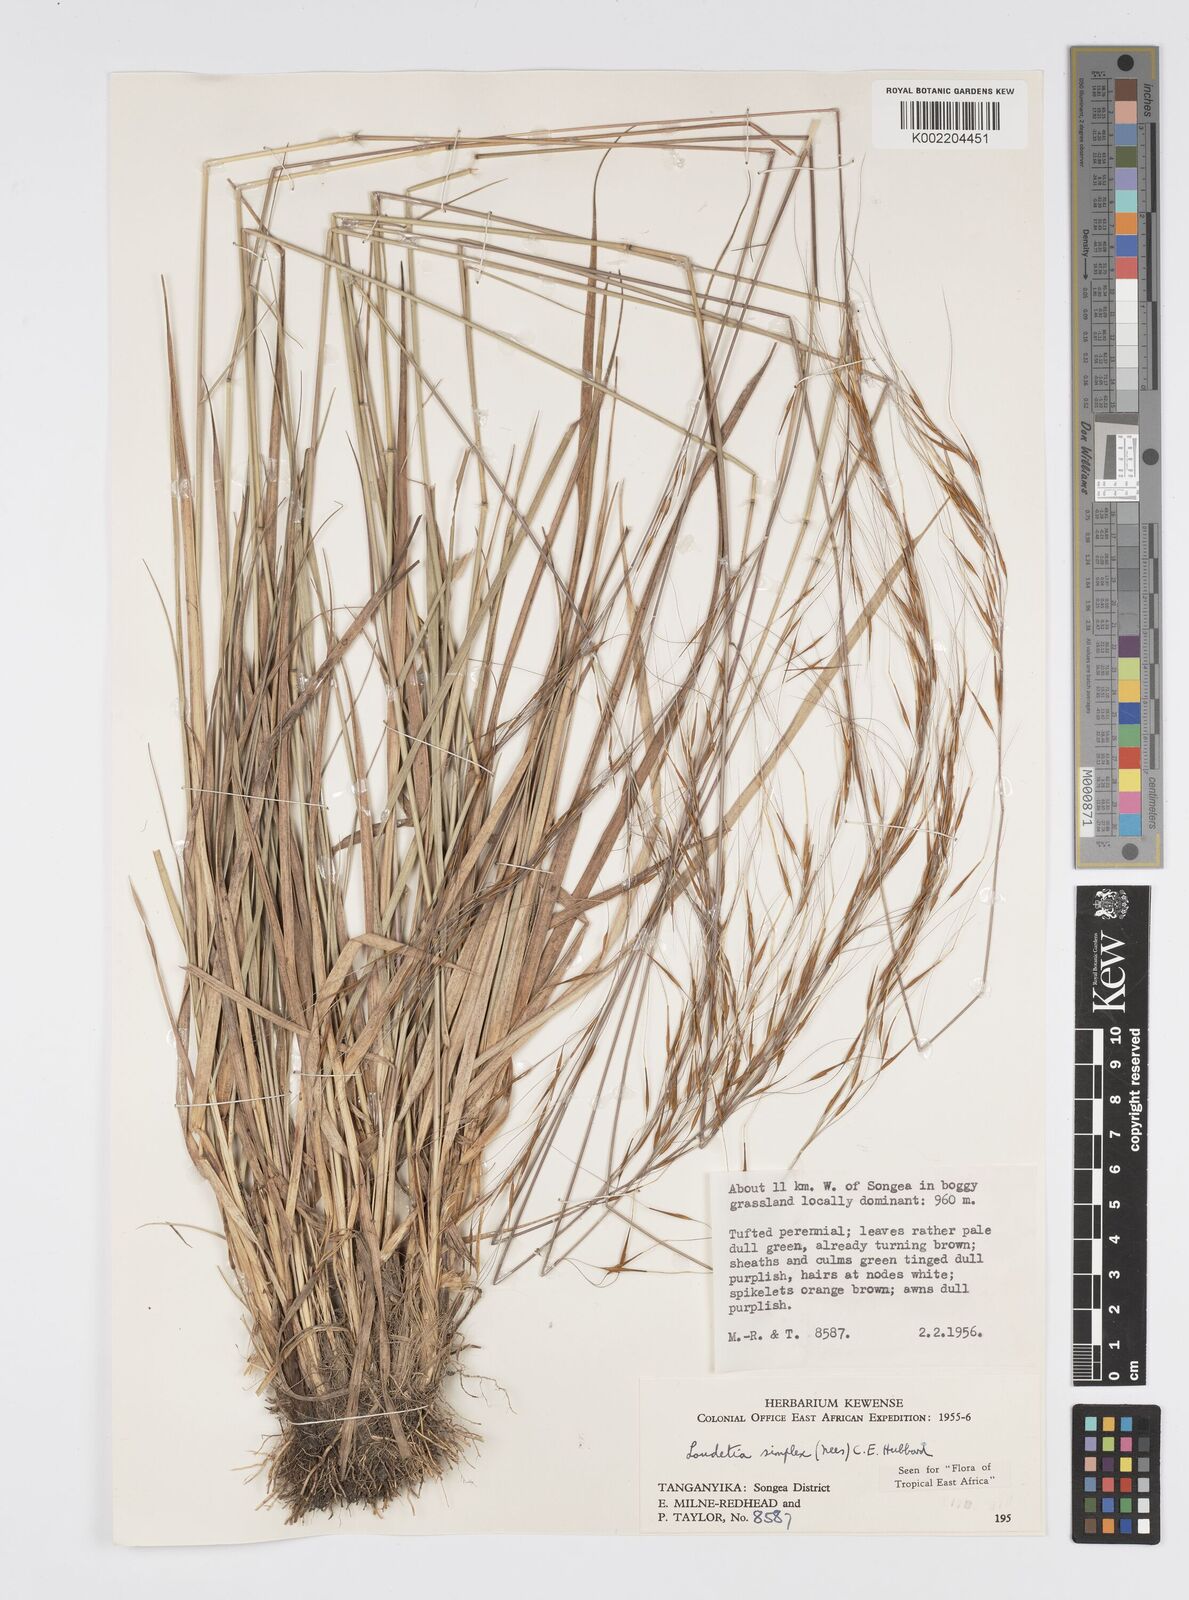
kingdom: Plantae
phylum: Tracheophyta
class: Liliopsida
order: Poales
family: Poaceae
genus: Loudetia
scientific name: Loudetia simplex
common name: Common russet grass
